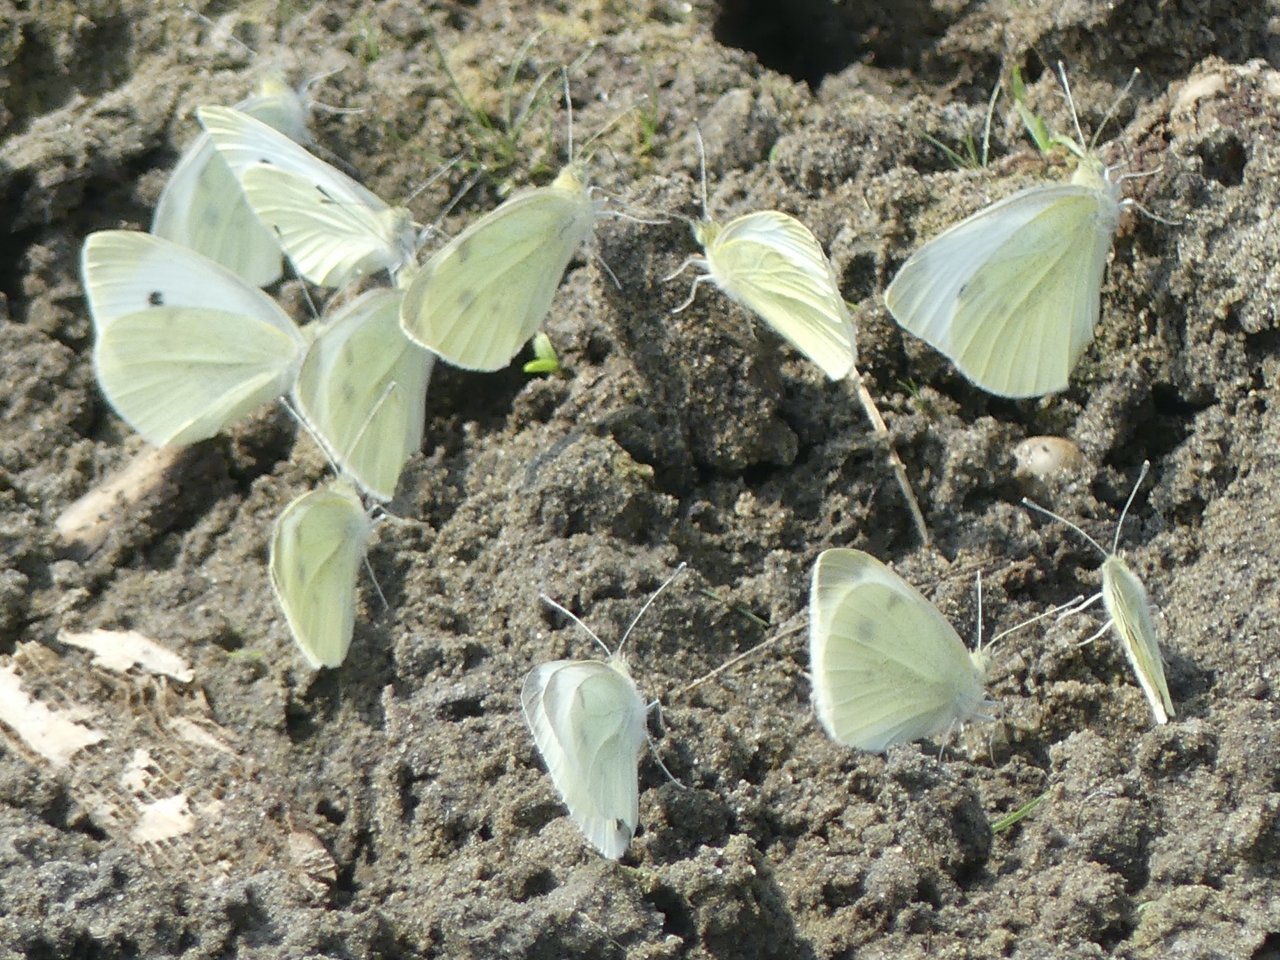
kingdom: Animalia
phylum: Arthropoda
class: Insecta
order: Lepidoptera
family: Pieridae
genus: Pieris
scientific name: Pieris rapae
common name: Cabbage White
